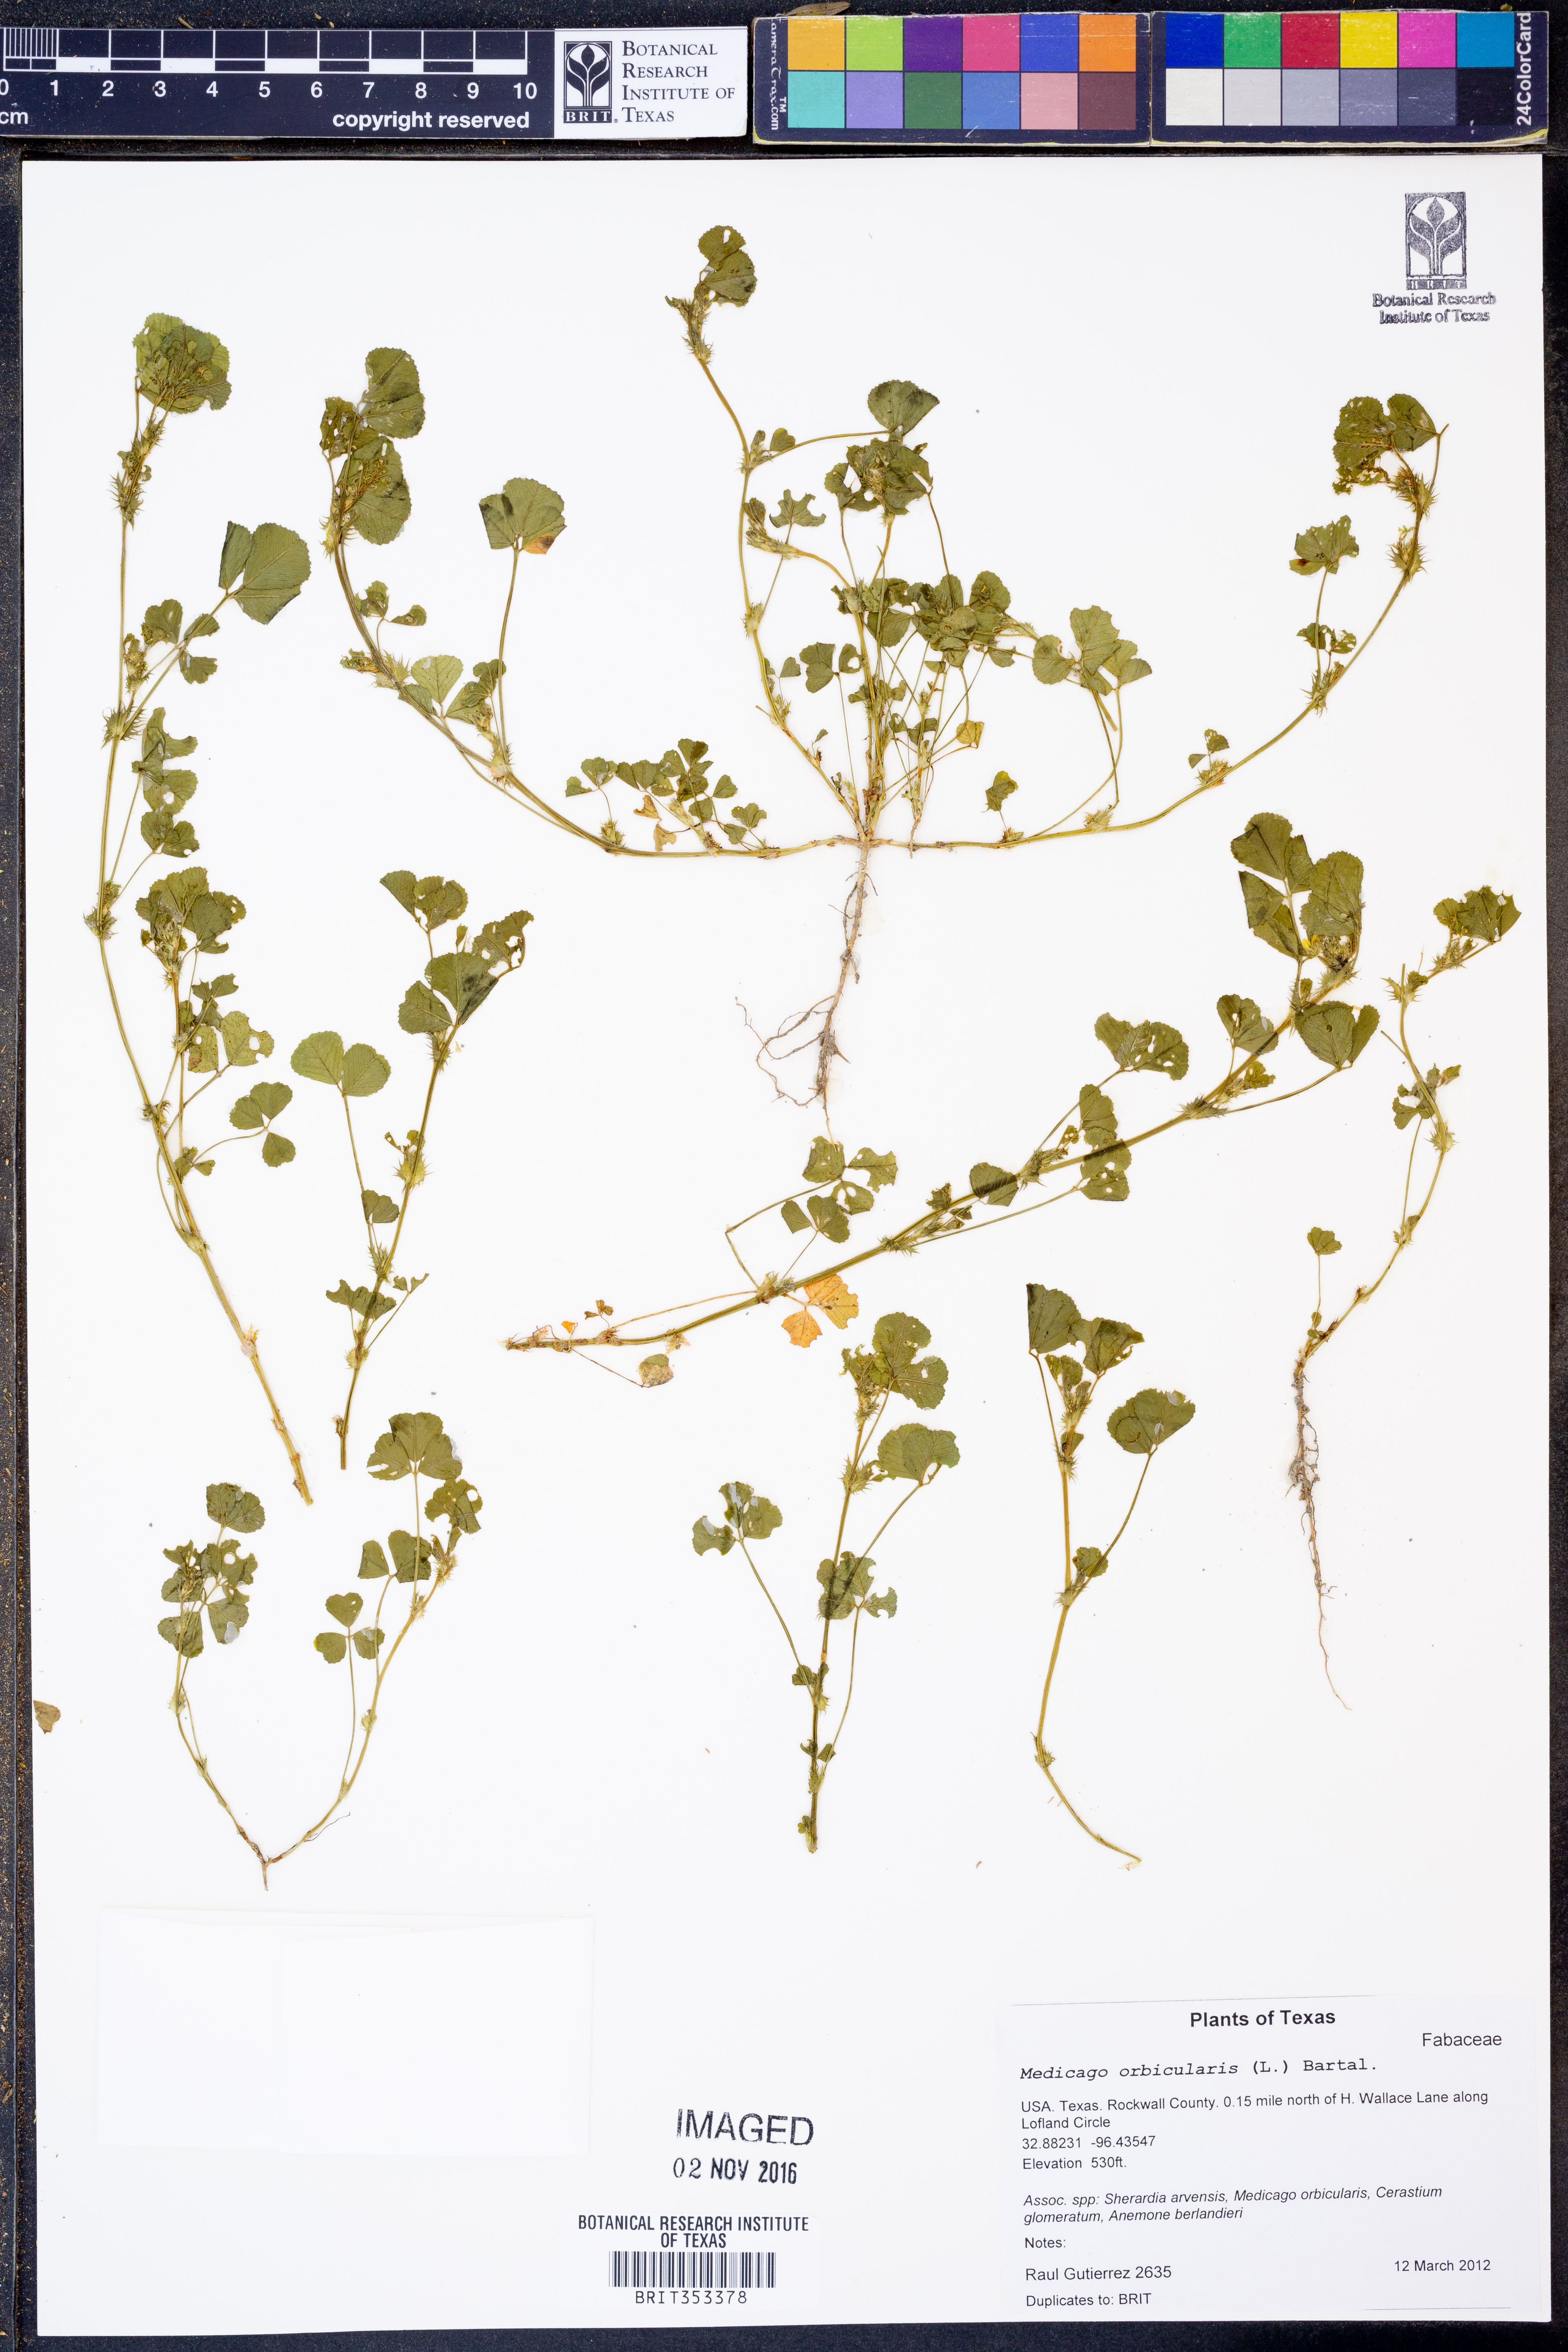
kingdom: Plantae
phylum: Tracheophyta
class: Magnoliopsida
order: Fabales
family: Fabaceae
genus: Medicago
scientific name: Medicago orbicularis
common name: Button medick
